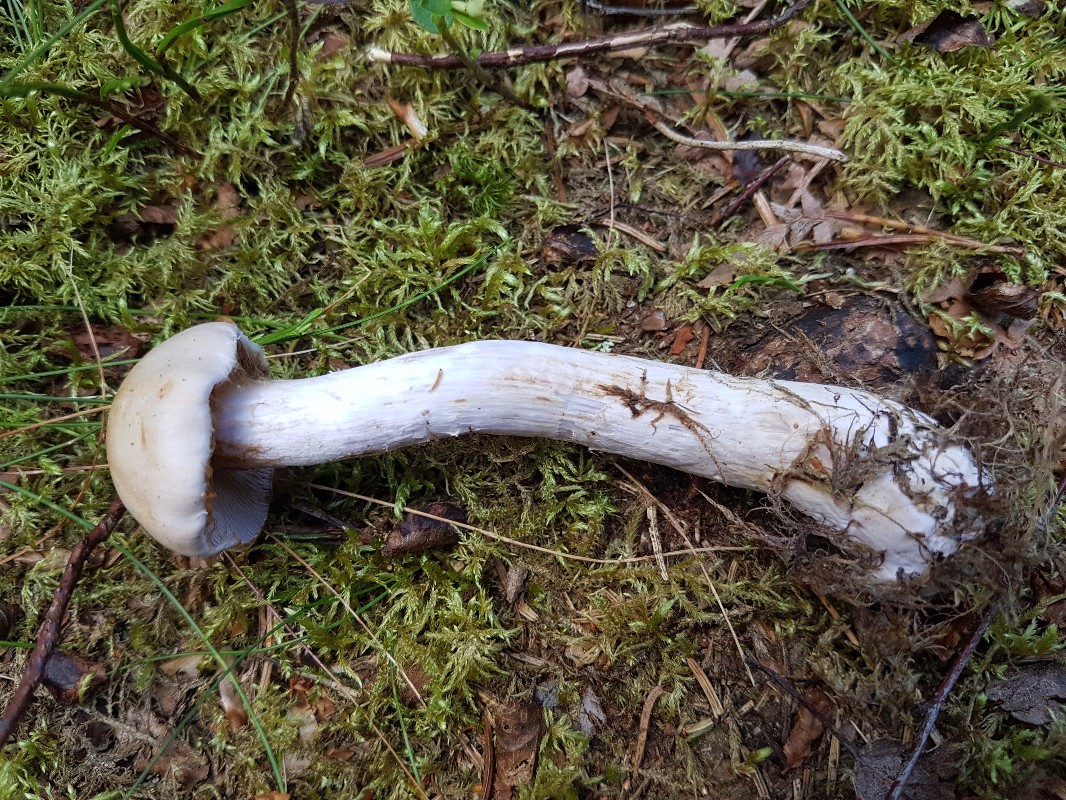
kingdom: Fungi
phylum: Basidiomycota
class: Agaricomycetes
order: Agaricales
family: Cortinariaceae
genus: Thaxterogaster
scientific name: Thaxterogaster leucophanes
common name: fløde-slørhat
